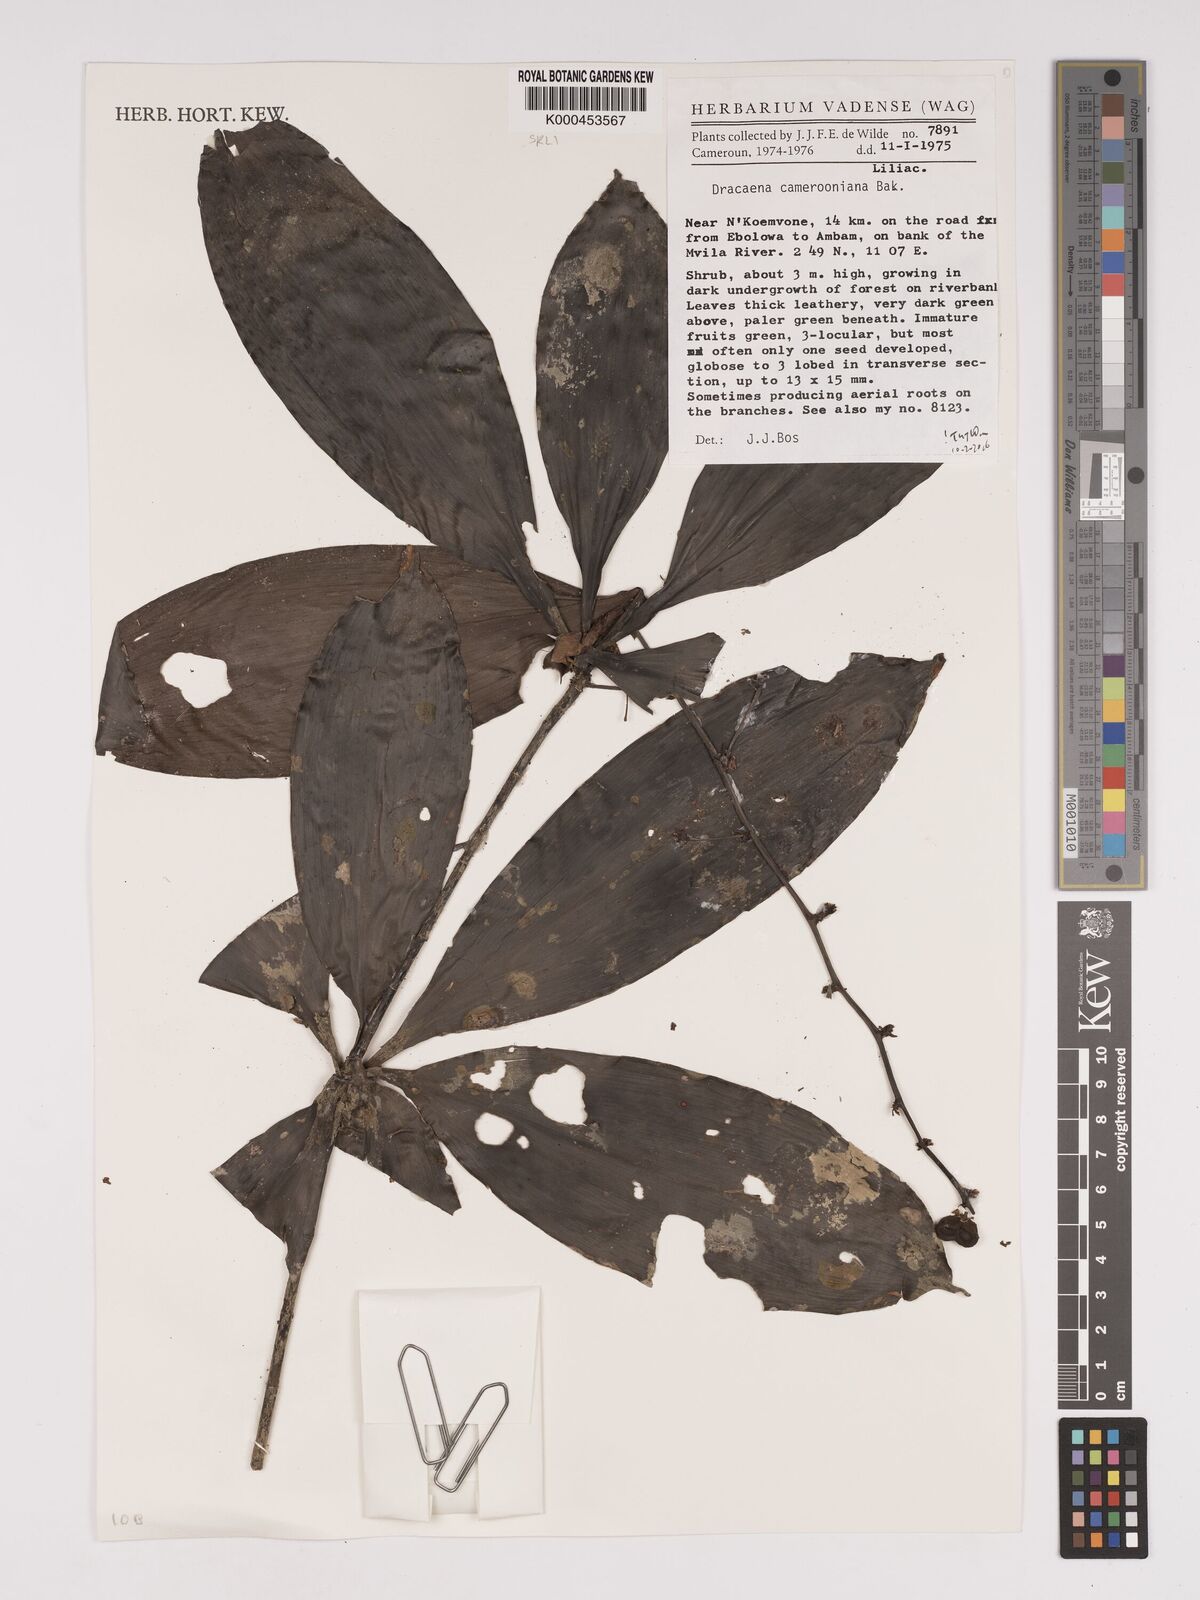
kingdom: Plantae
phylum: Tracheophyta
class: Liliopsida
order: Asparagales
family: Asparagaceae
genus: Dracaena
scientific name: Dracaena camerooniana
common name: Dragon tree
